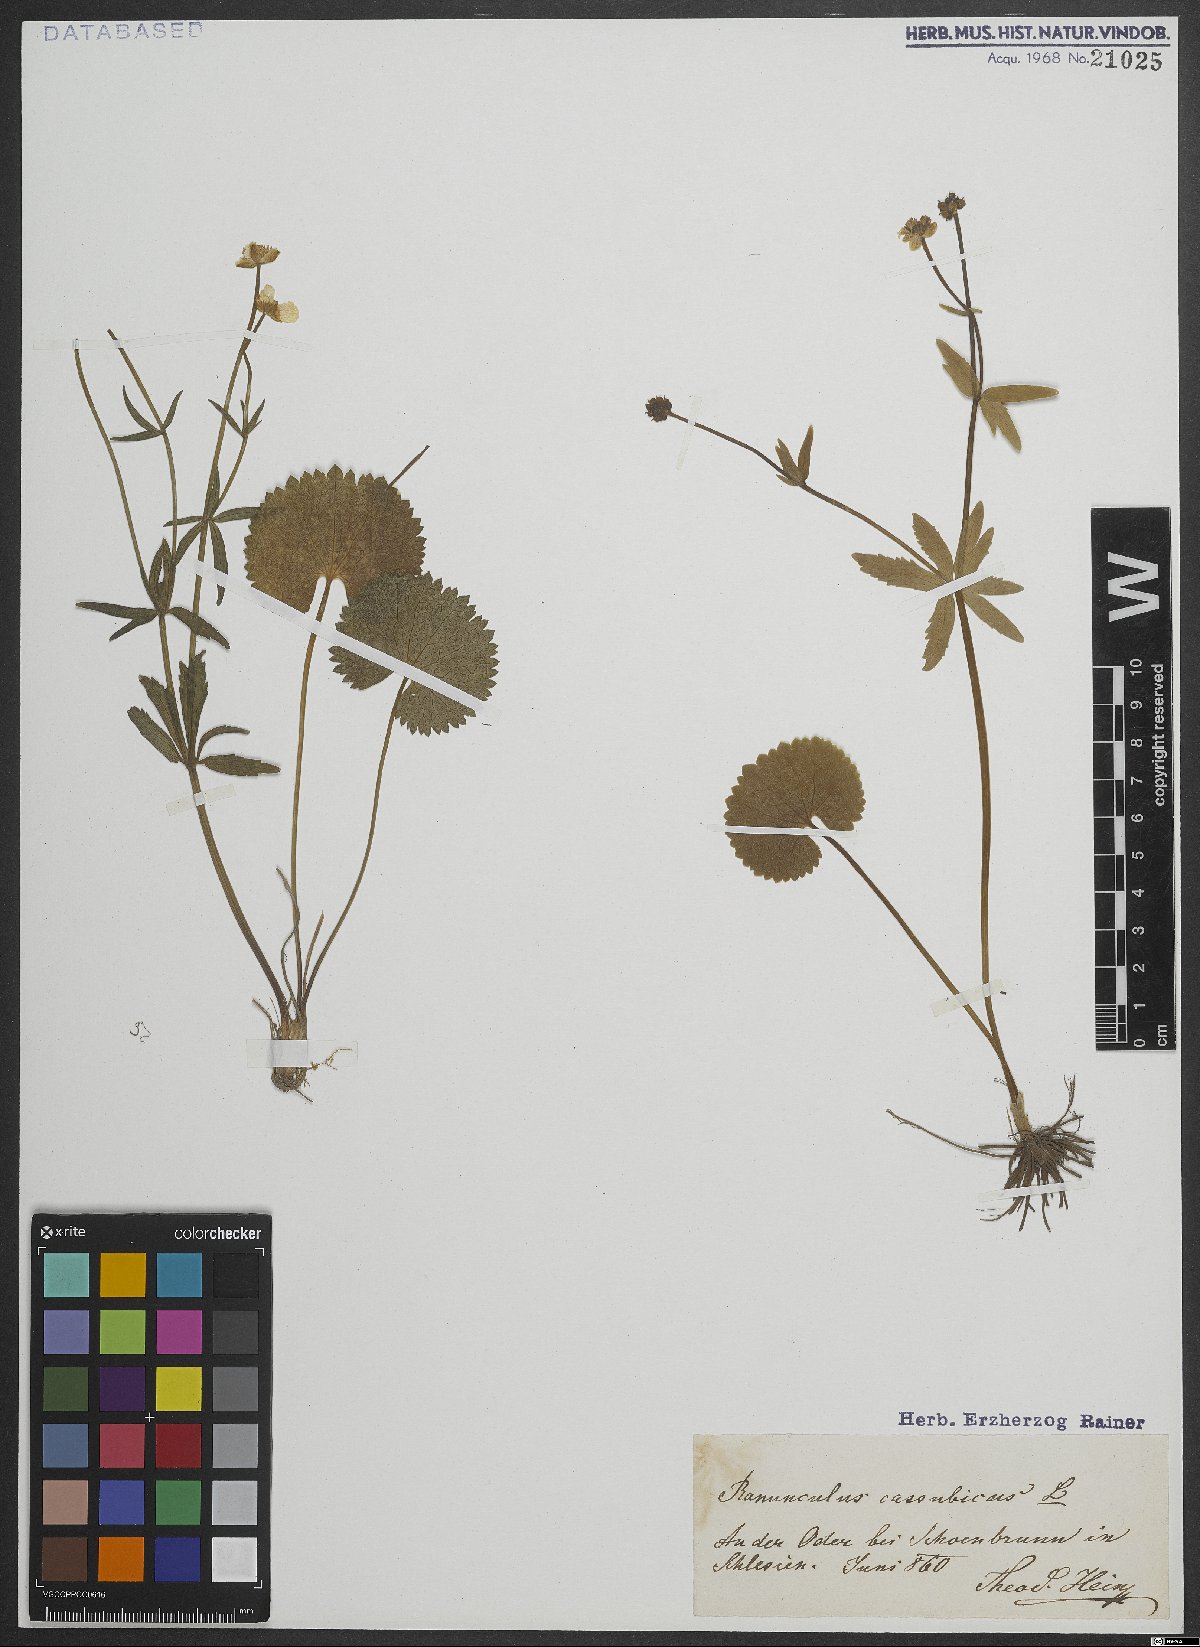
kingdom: Plantae
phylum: Tracheophyta
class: Magnoliopsida
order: Ranunculales
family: Ranunculaceae
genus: Ranunculus
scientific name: Ranunculus cassubicus
